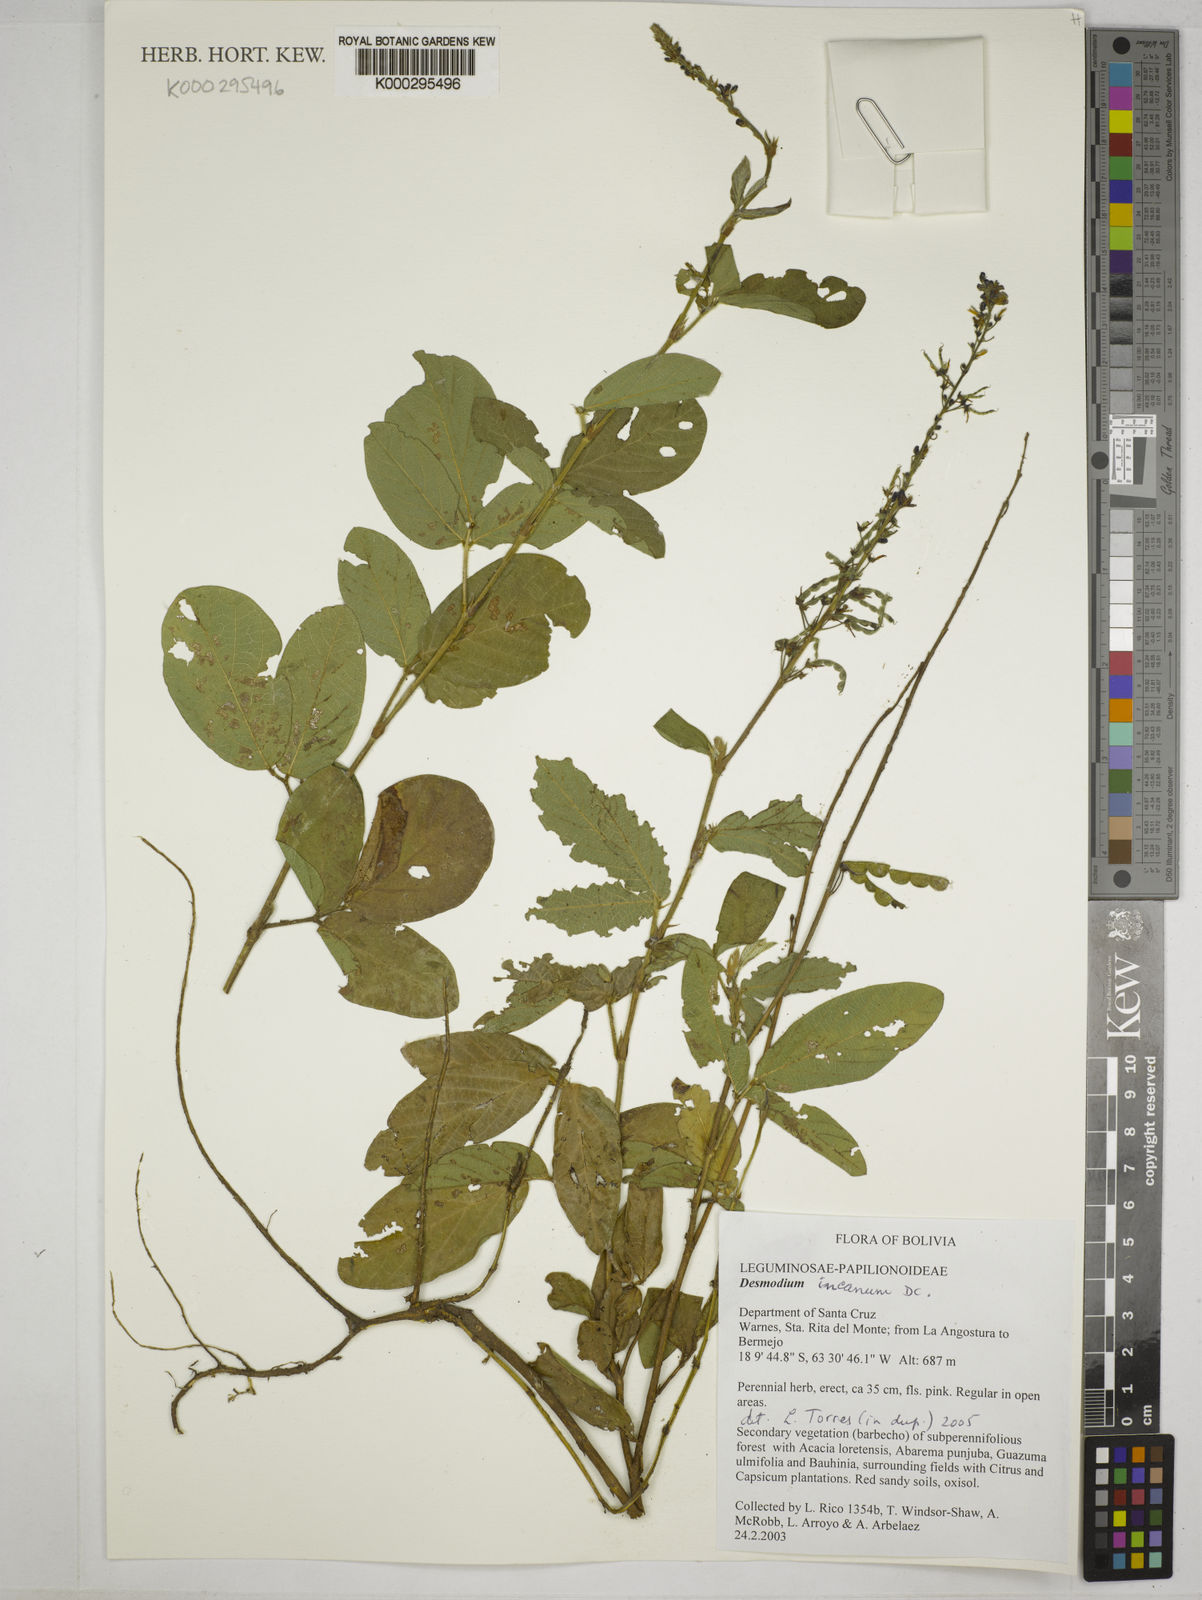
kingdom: Plantae
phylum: Tracheophyta
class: Magnoliopsida
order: Fabales
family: Fabaceae
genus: Desmodium
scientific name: Desmodium
